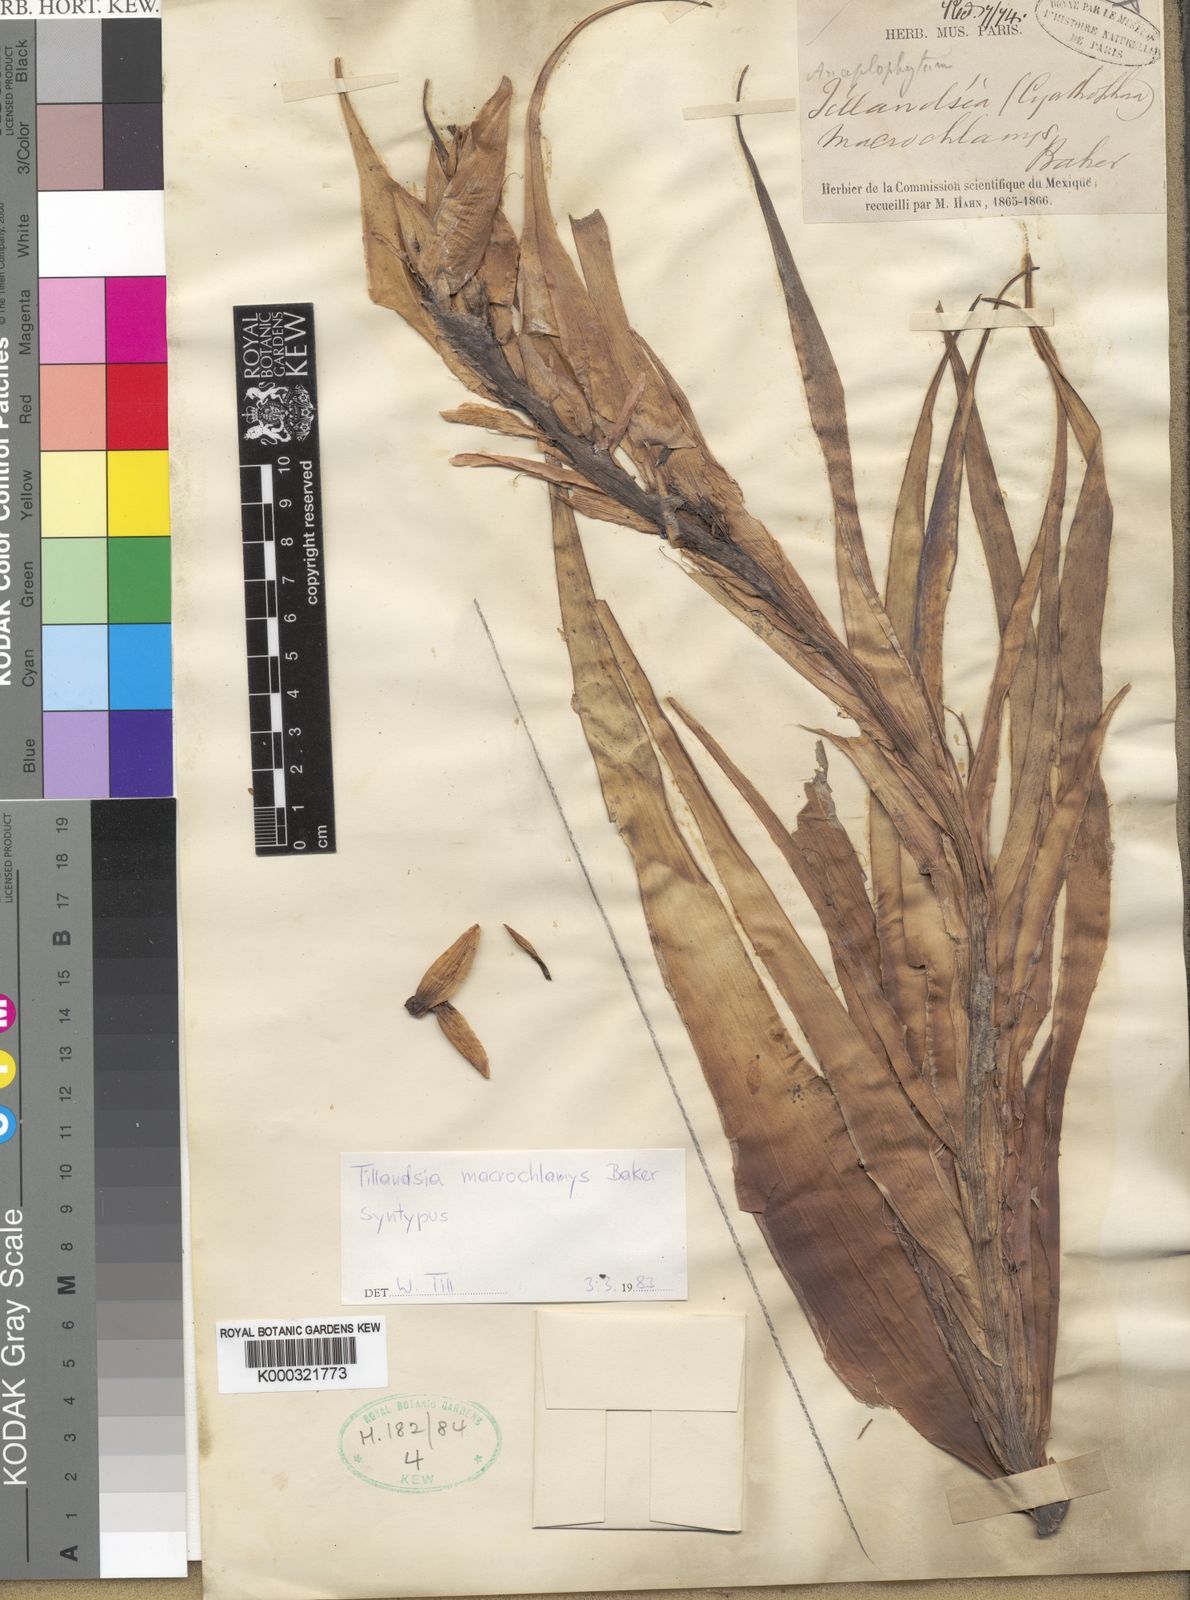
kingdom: Plantae
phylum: Tracheophyta
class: Liliopsida
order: Poales
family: Bromeliaceae
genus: Tillandsia
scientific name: Tillandsia macrochlamys
